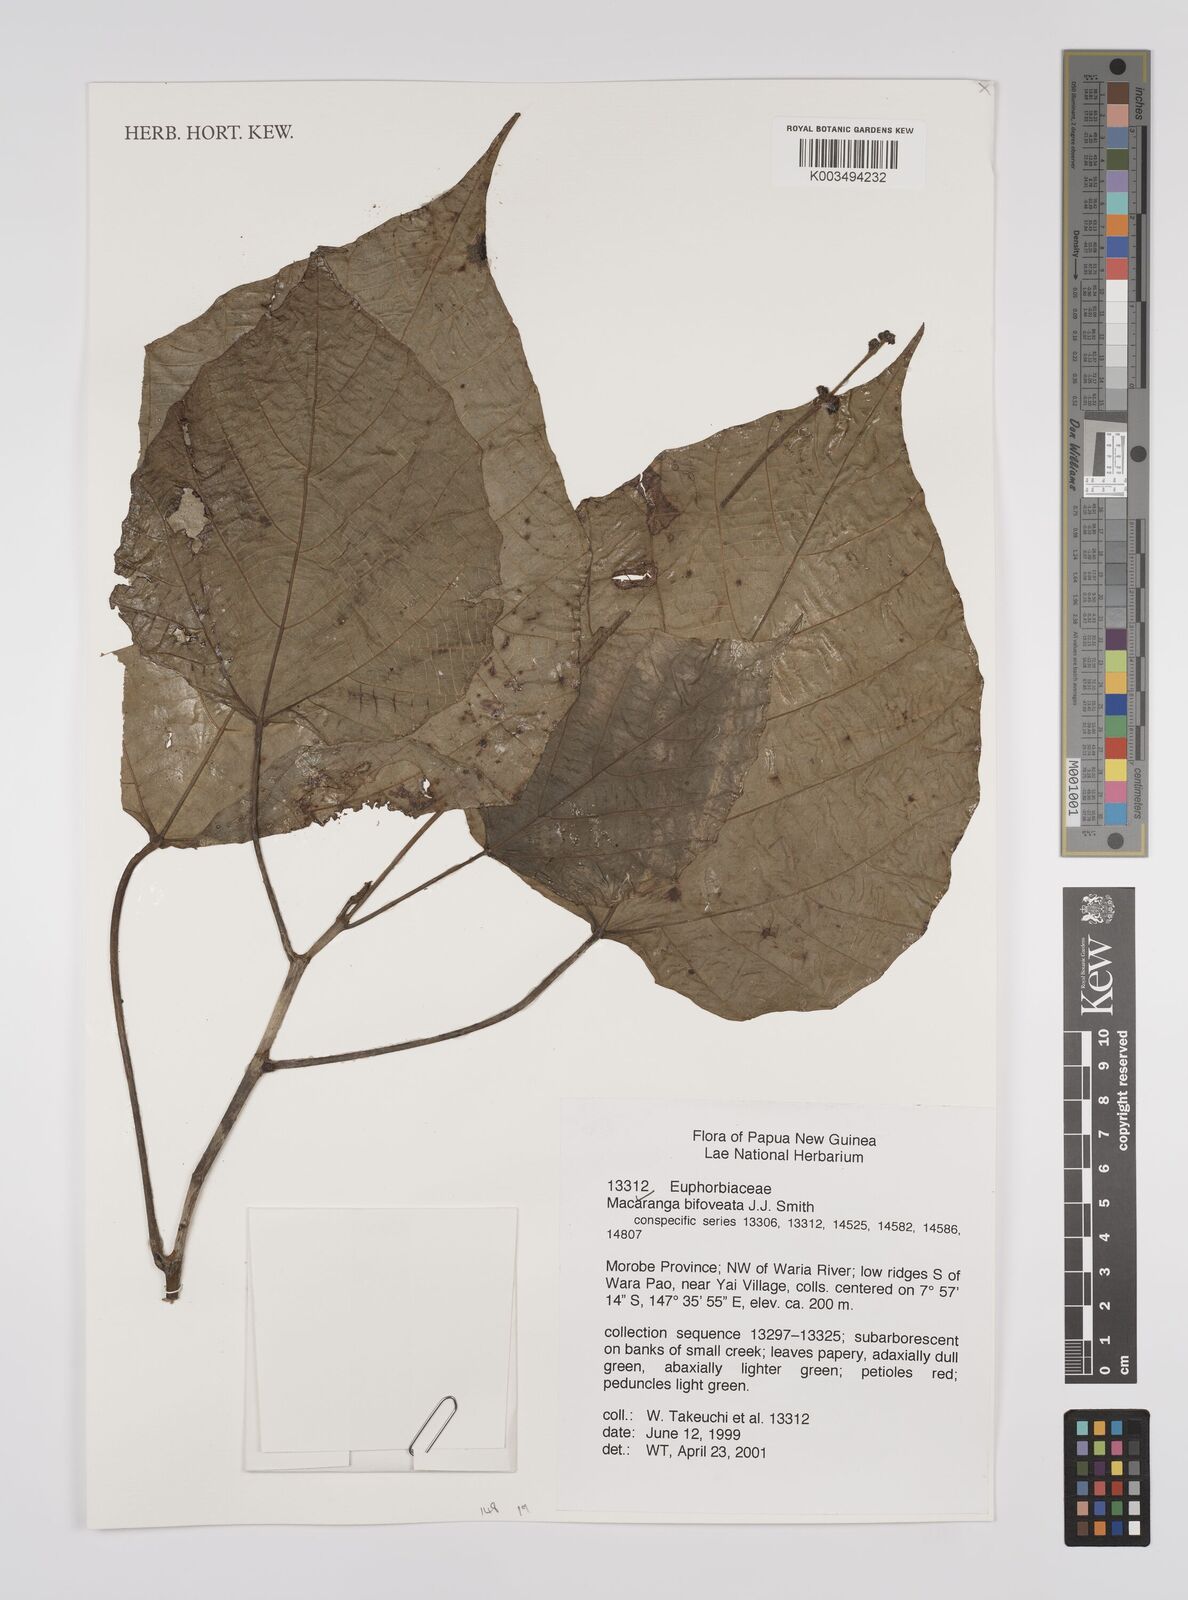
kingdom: Plantae
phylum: Tracheophyta
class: Magnoliopsida
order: Malpighiales
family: Euphorbiaceae
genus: Macaranga
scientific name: Macaranga bifoveata
